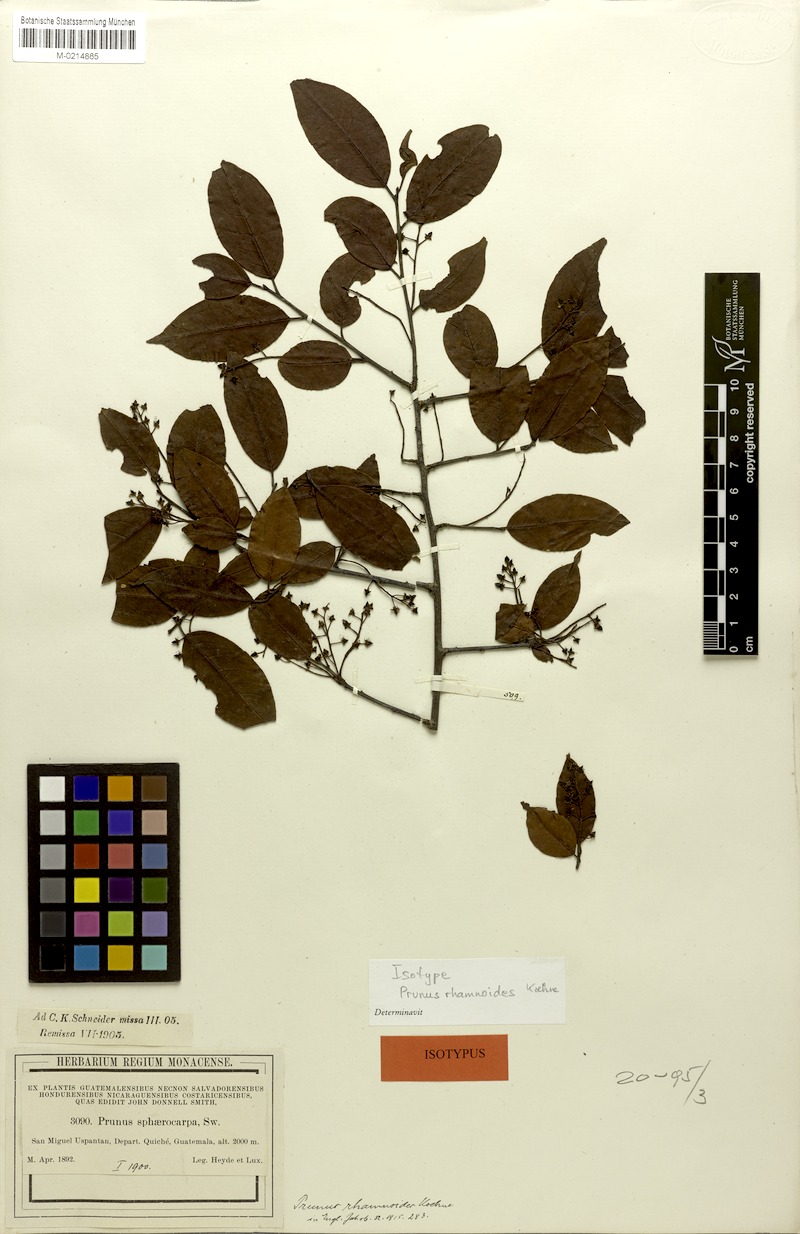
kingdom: Plantae
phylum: Tracheophyta
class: Magnoliopsida
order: Rosales
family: Rosaceae
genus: Prunus
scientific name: Prunus rhamnoides
